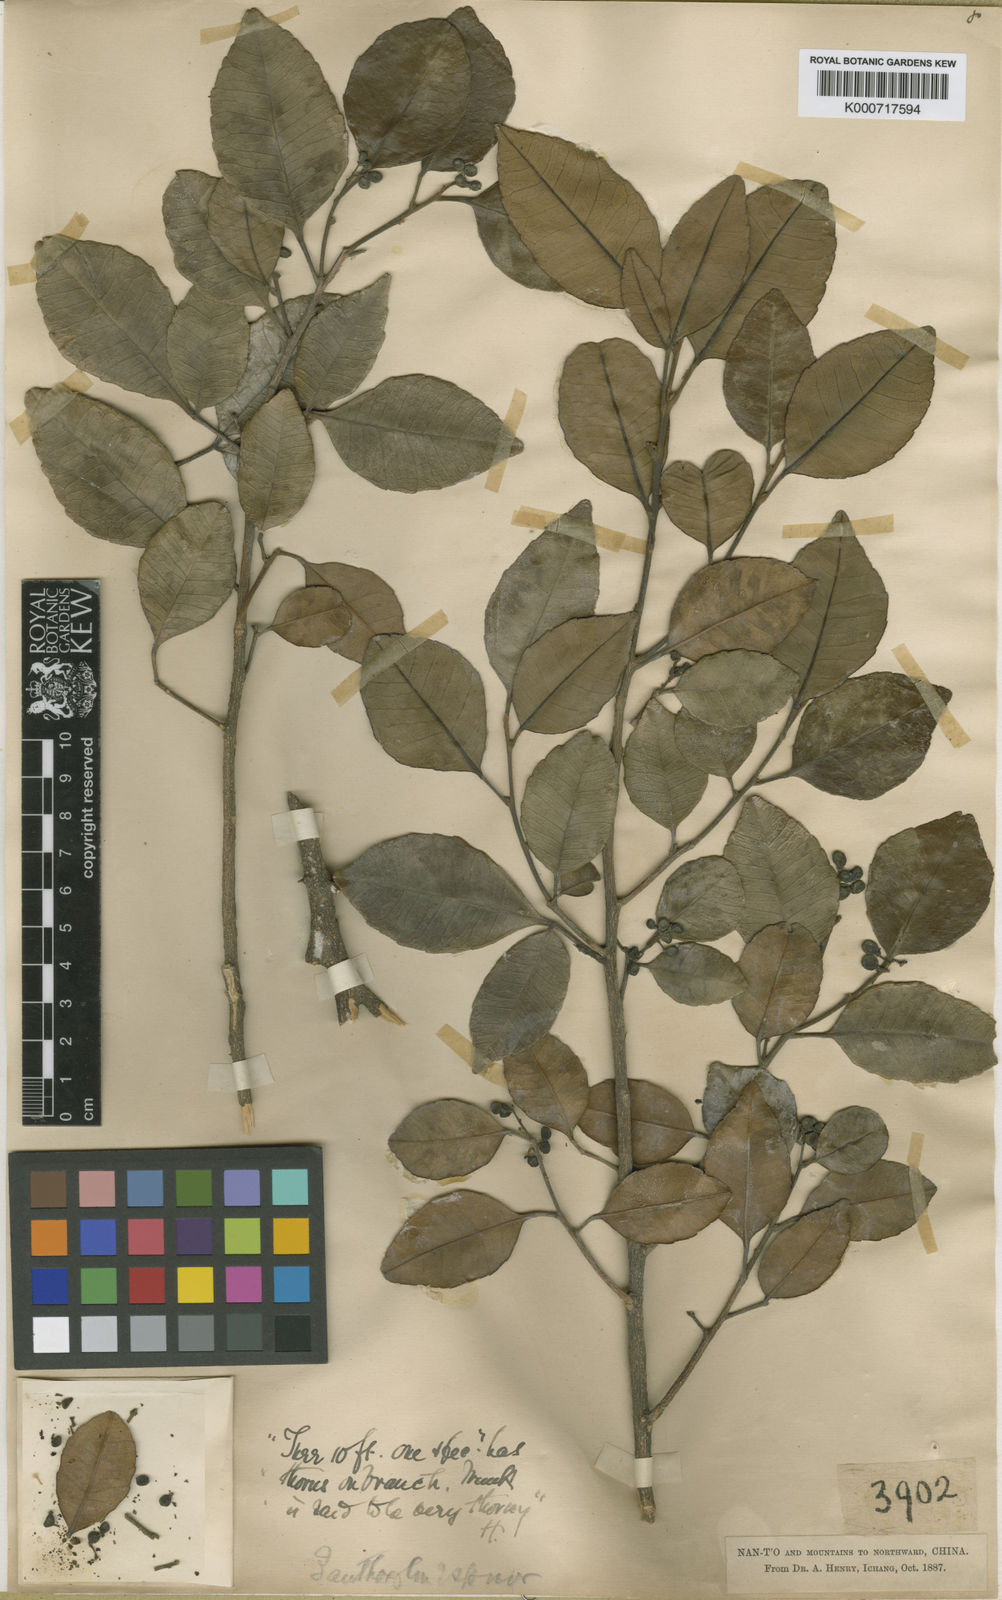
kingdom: Plantae
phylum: Tracheophyta
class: Magnoliopsida
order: Sapindales
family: Rutaceae
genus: Zanthoxylum
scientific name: Zanthoxylum dimorphophyllum
